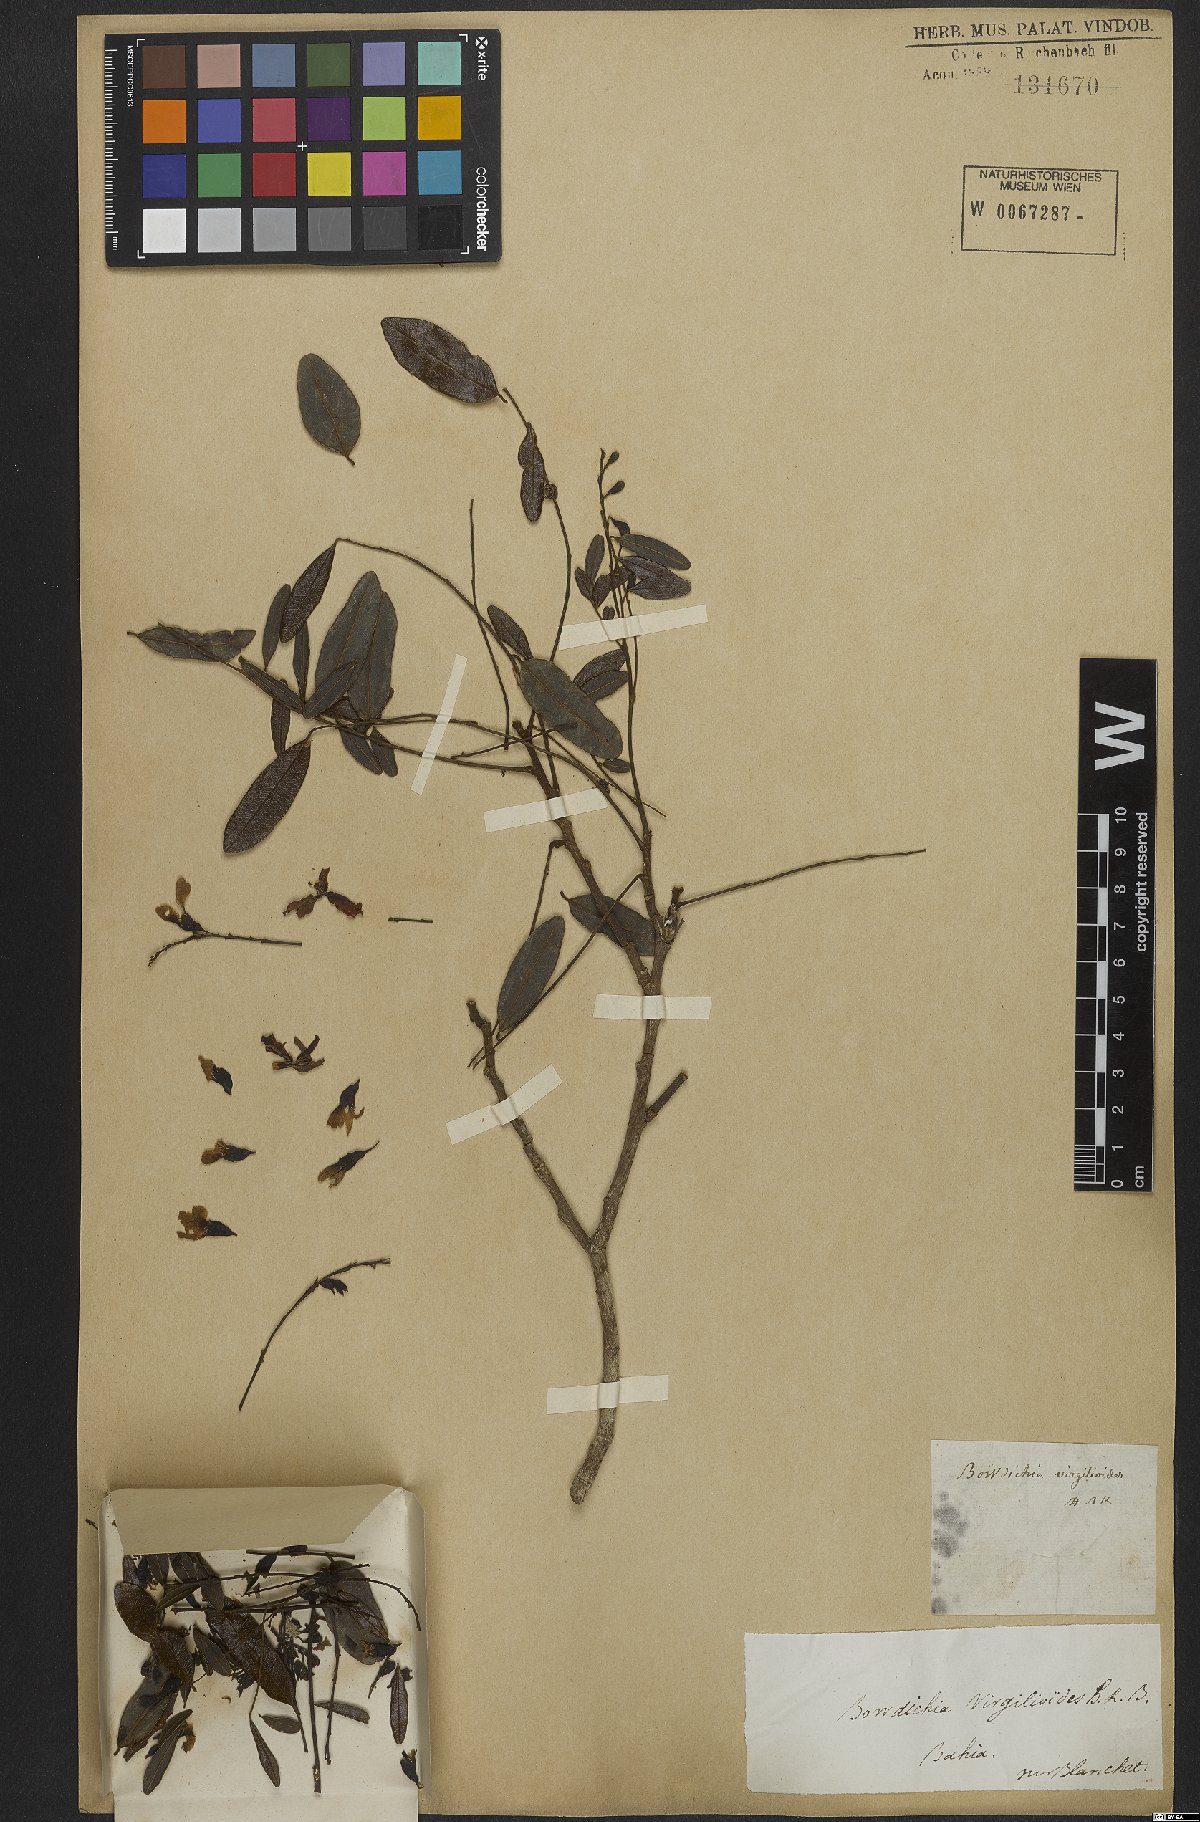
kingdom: Plantae
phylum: Tracheophyta
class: Magnoliopsida
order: Fabales
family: Fabaceae
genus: Bowdichia
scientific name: Bowdichia virgilioides
